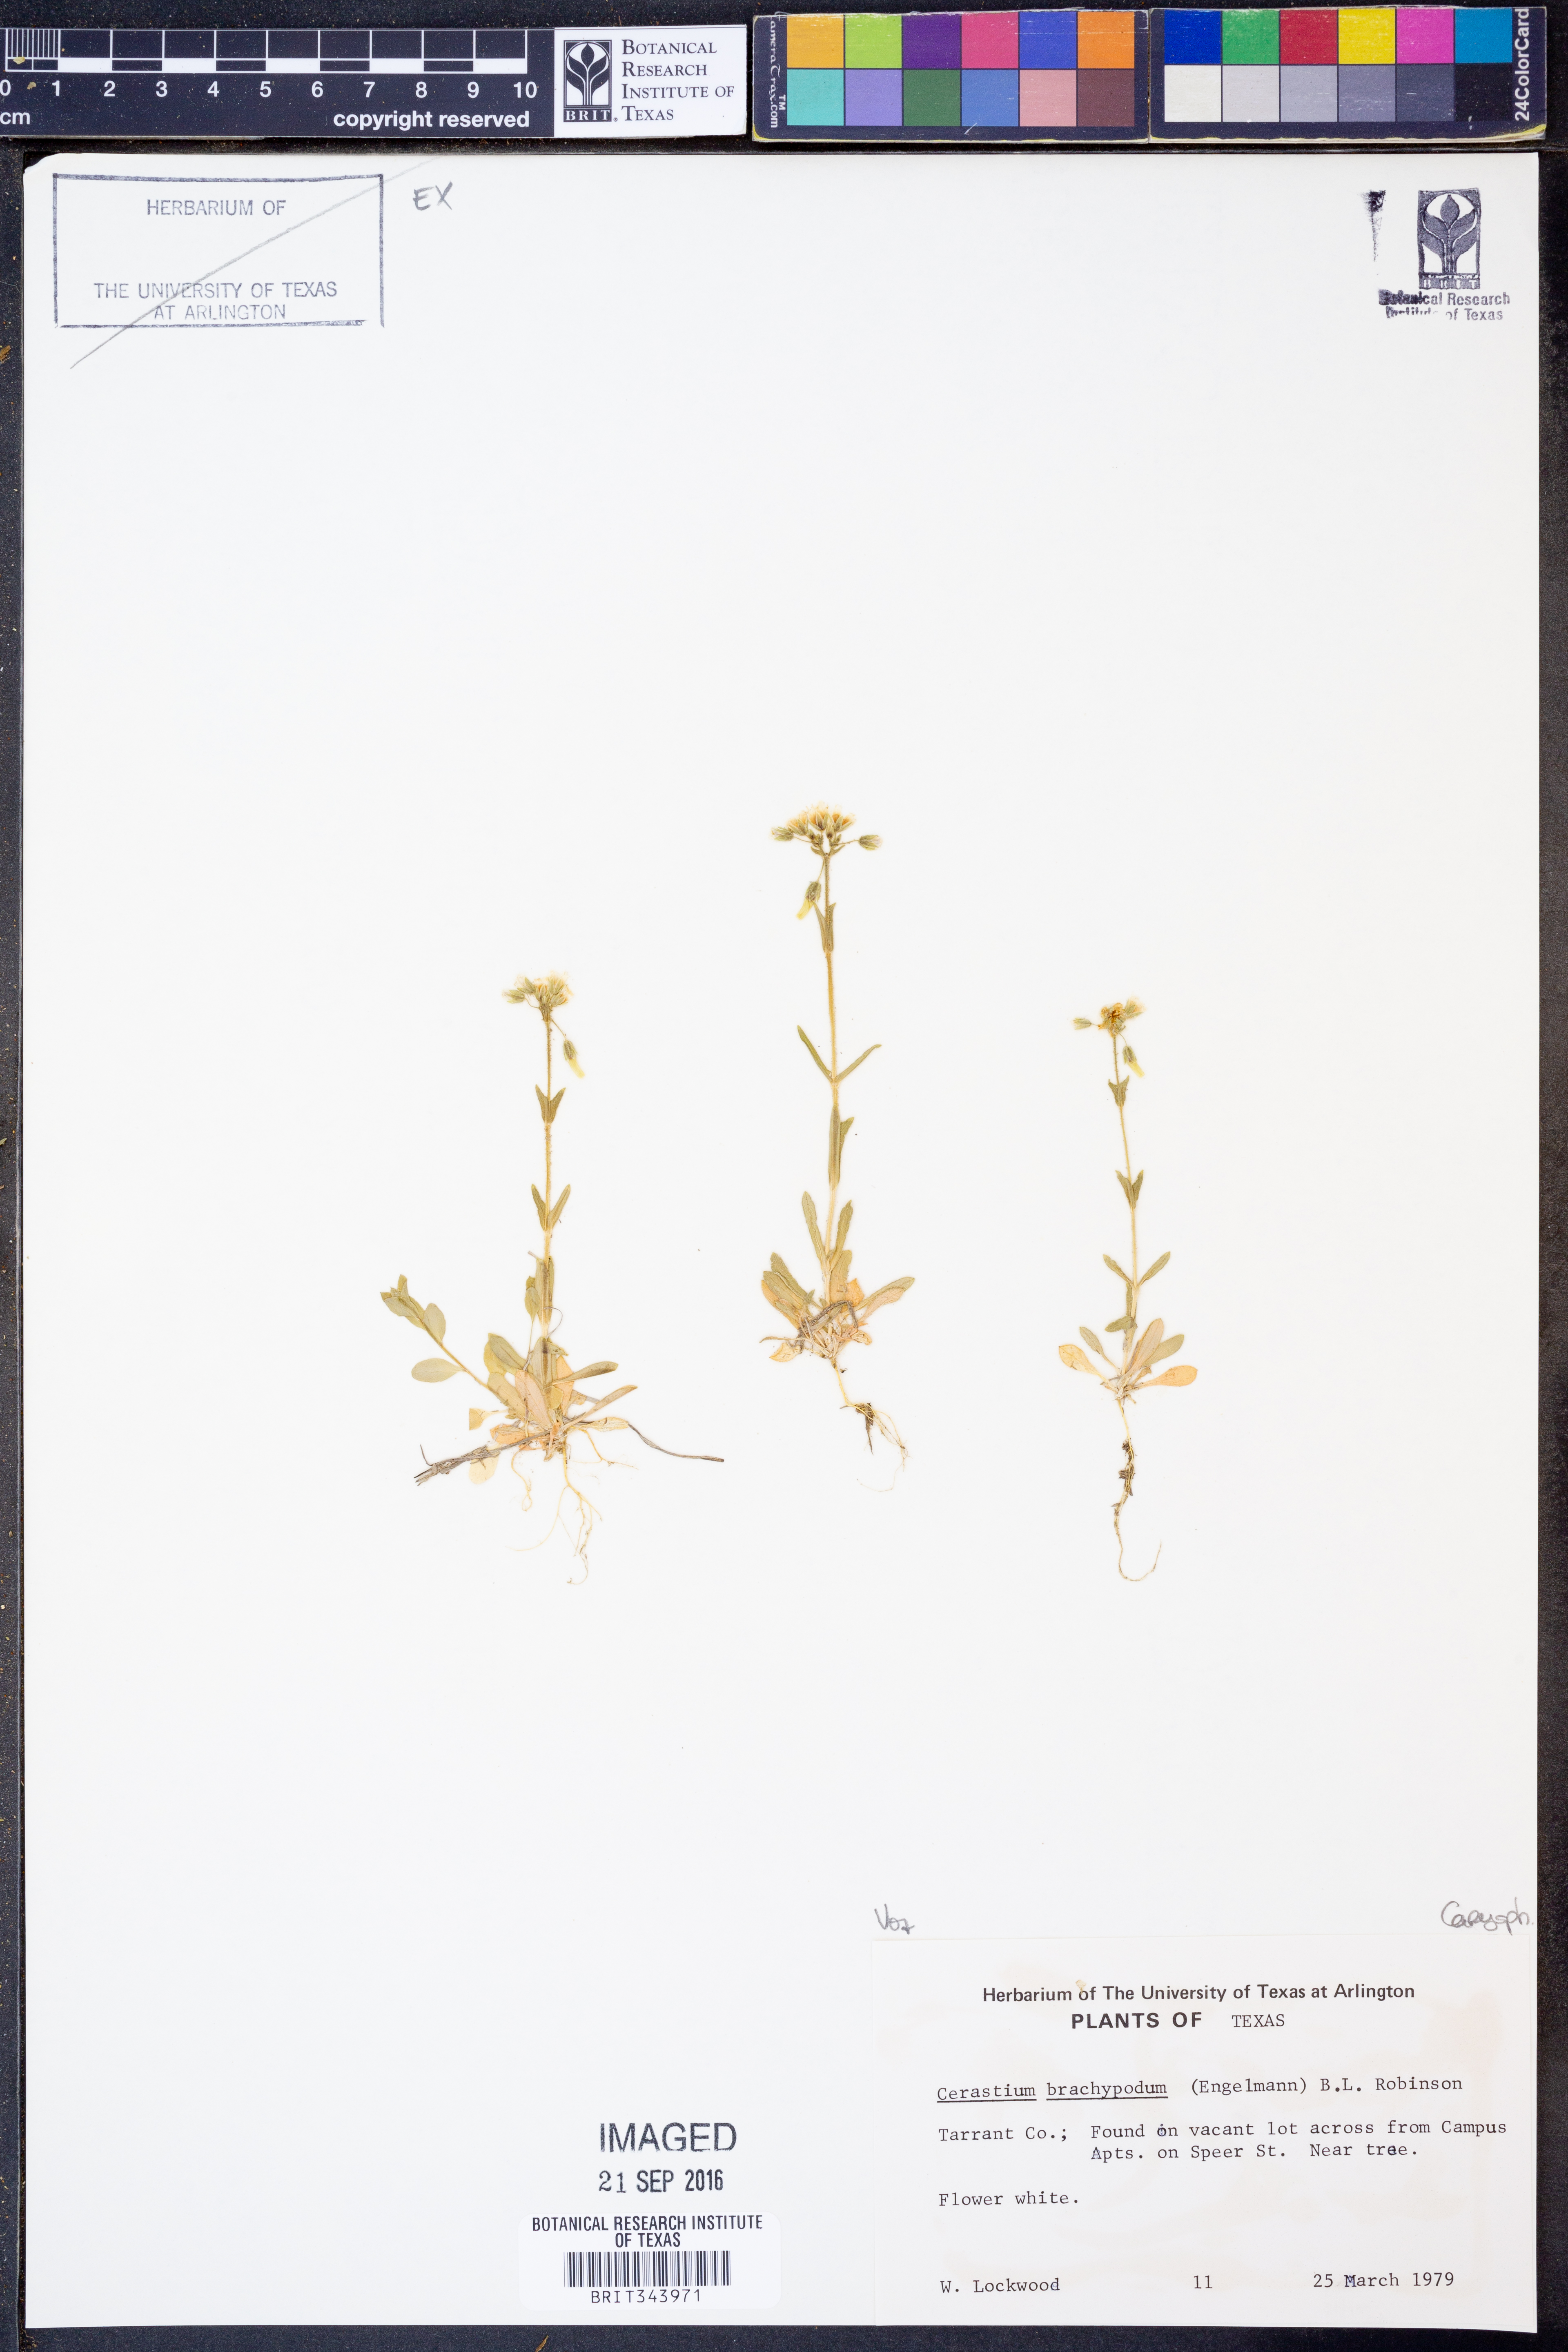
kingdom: Plantae
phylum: Tracheophyta
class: Magnoliopsida
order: Caryophyllales
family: Caryophyllaceae
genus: Cerastium
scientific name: Cerastium brachypodum
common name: Short-pedicelled nodding chickweed
